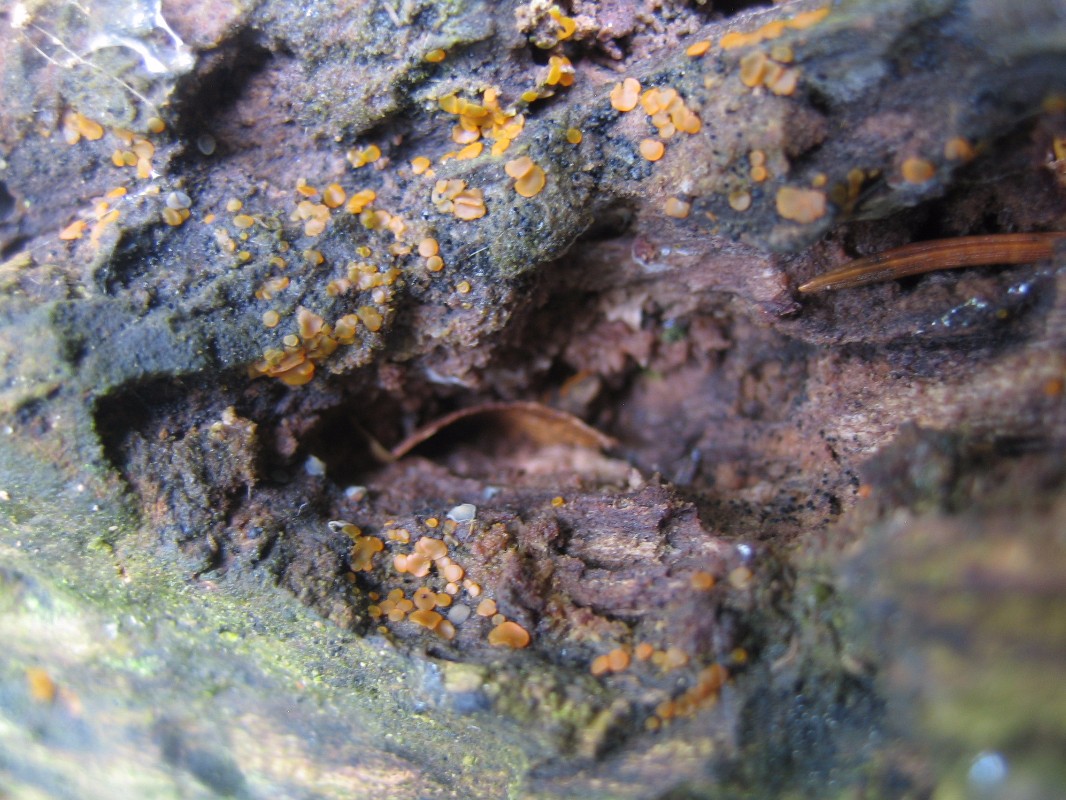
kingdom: Fungi
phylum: Ascomycota
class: Orbiliomycetes
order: Orbiliales
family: Orbiliaceae
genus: Orbilia
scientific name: Orbilia xanthostigma
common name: krumsporet voksskive
